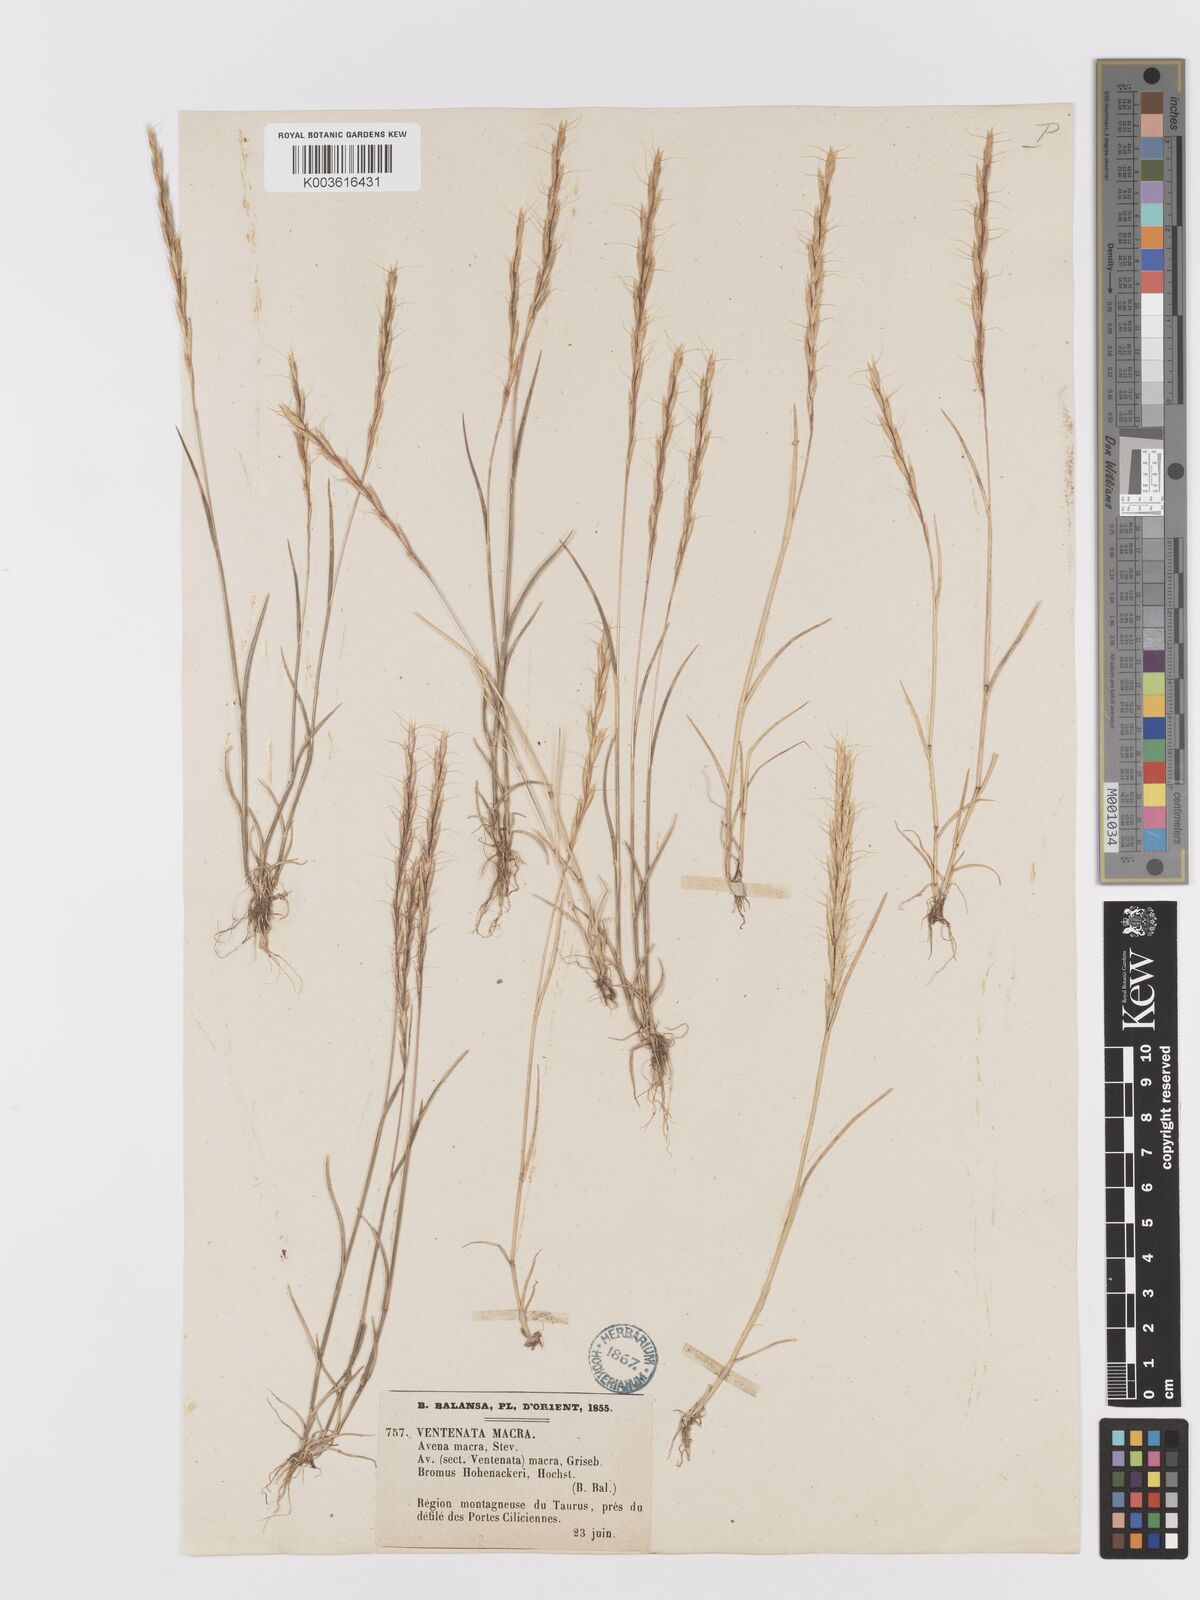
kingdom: Plantae
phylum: Tracheophyta
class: Liliopsida
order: Poales
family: Poaceae
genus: Ventenata
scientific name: Ventenata macra
